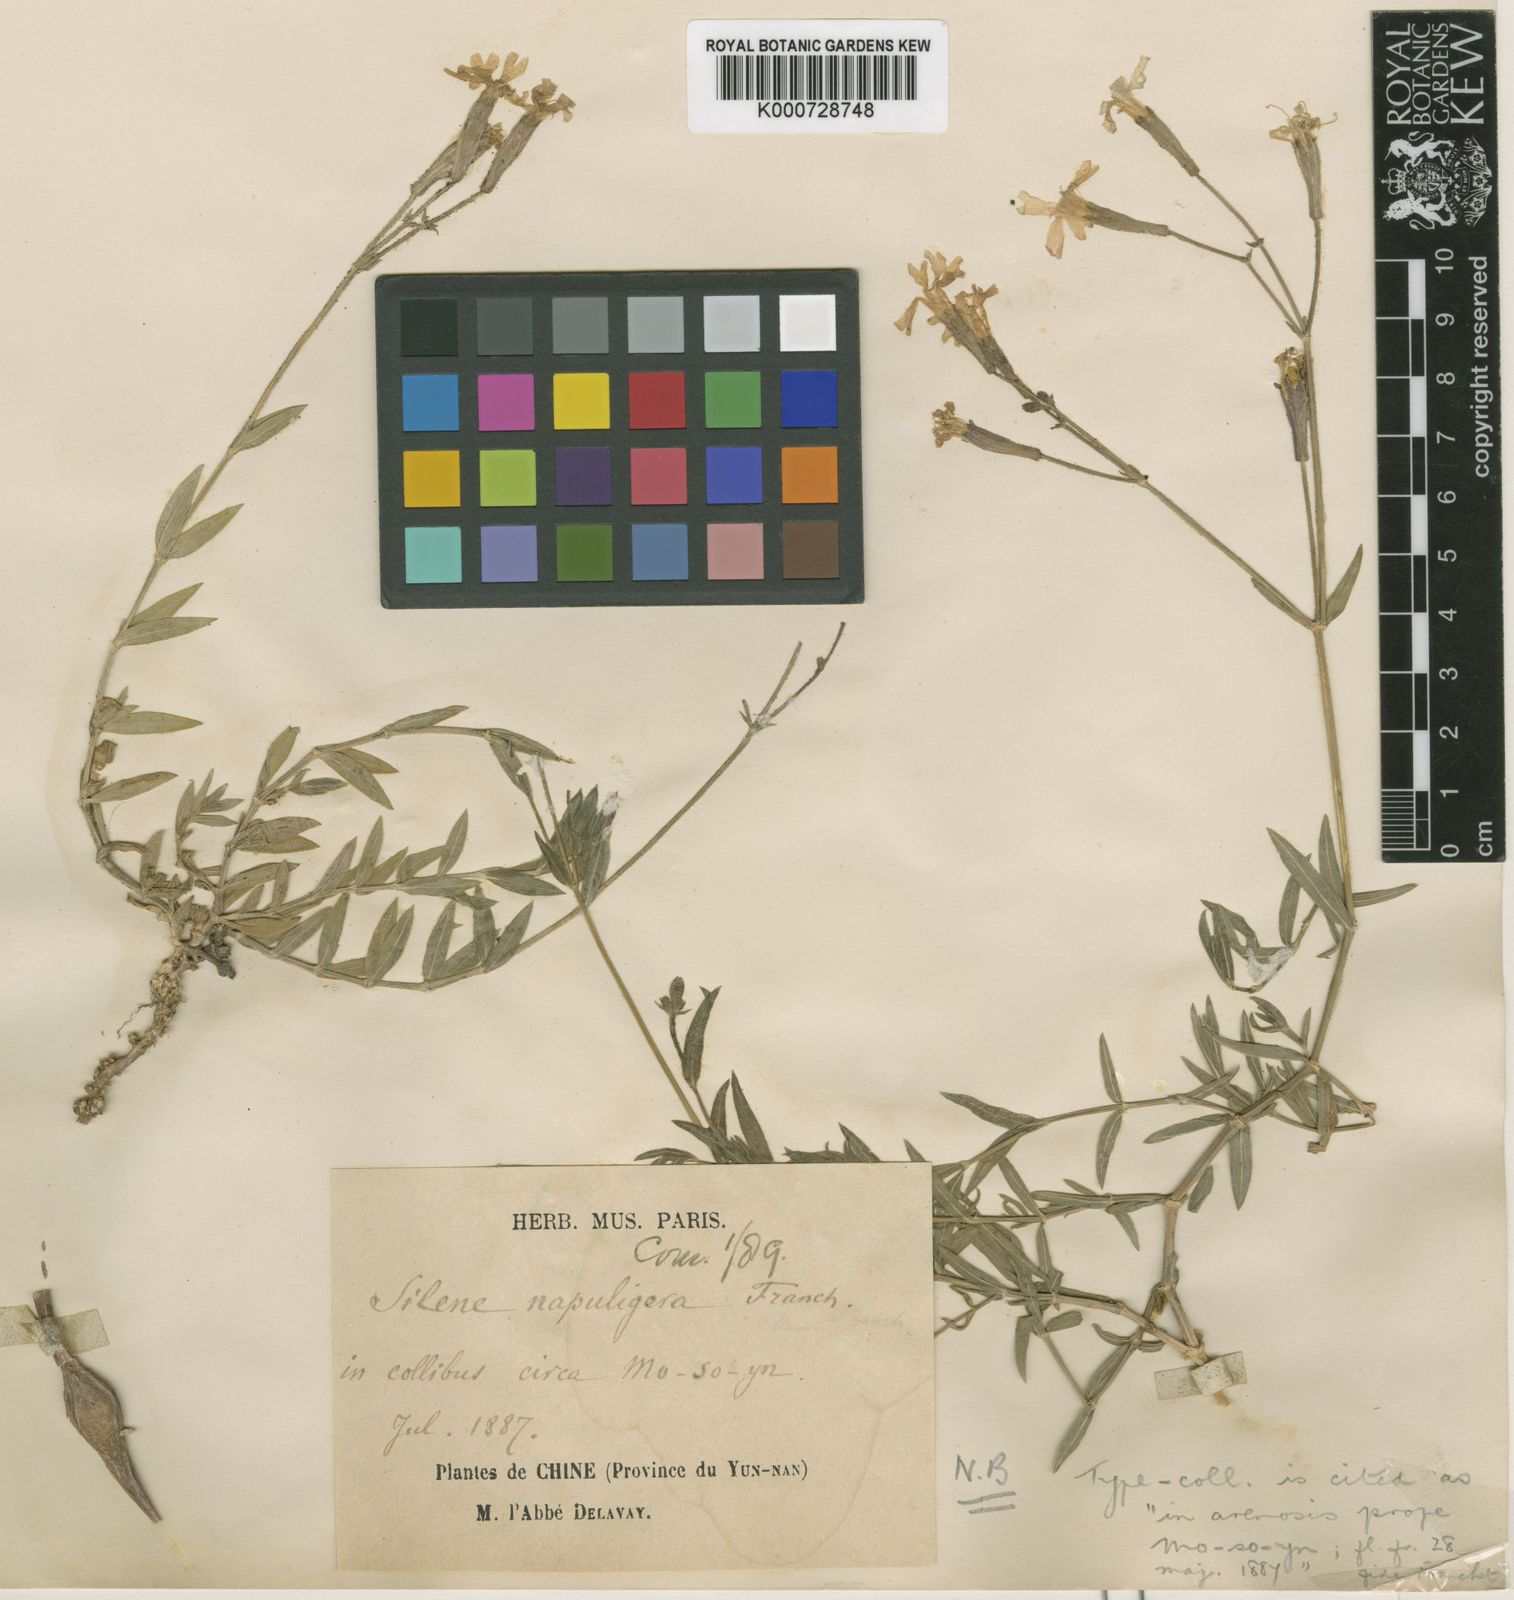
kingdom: Plantae
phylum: Tracheophyta
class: Magnoliopsida
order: Caryophyllales
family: Caryophyllaceae
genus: Silene
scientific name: Silene napuligera
